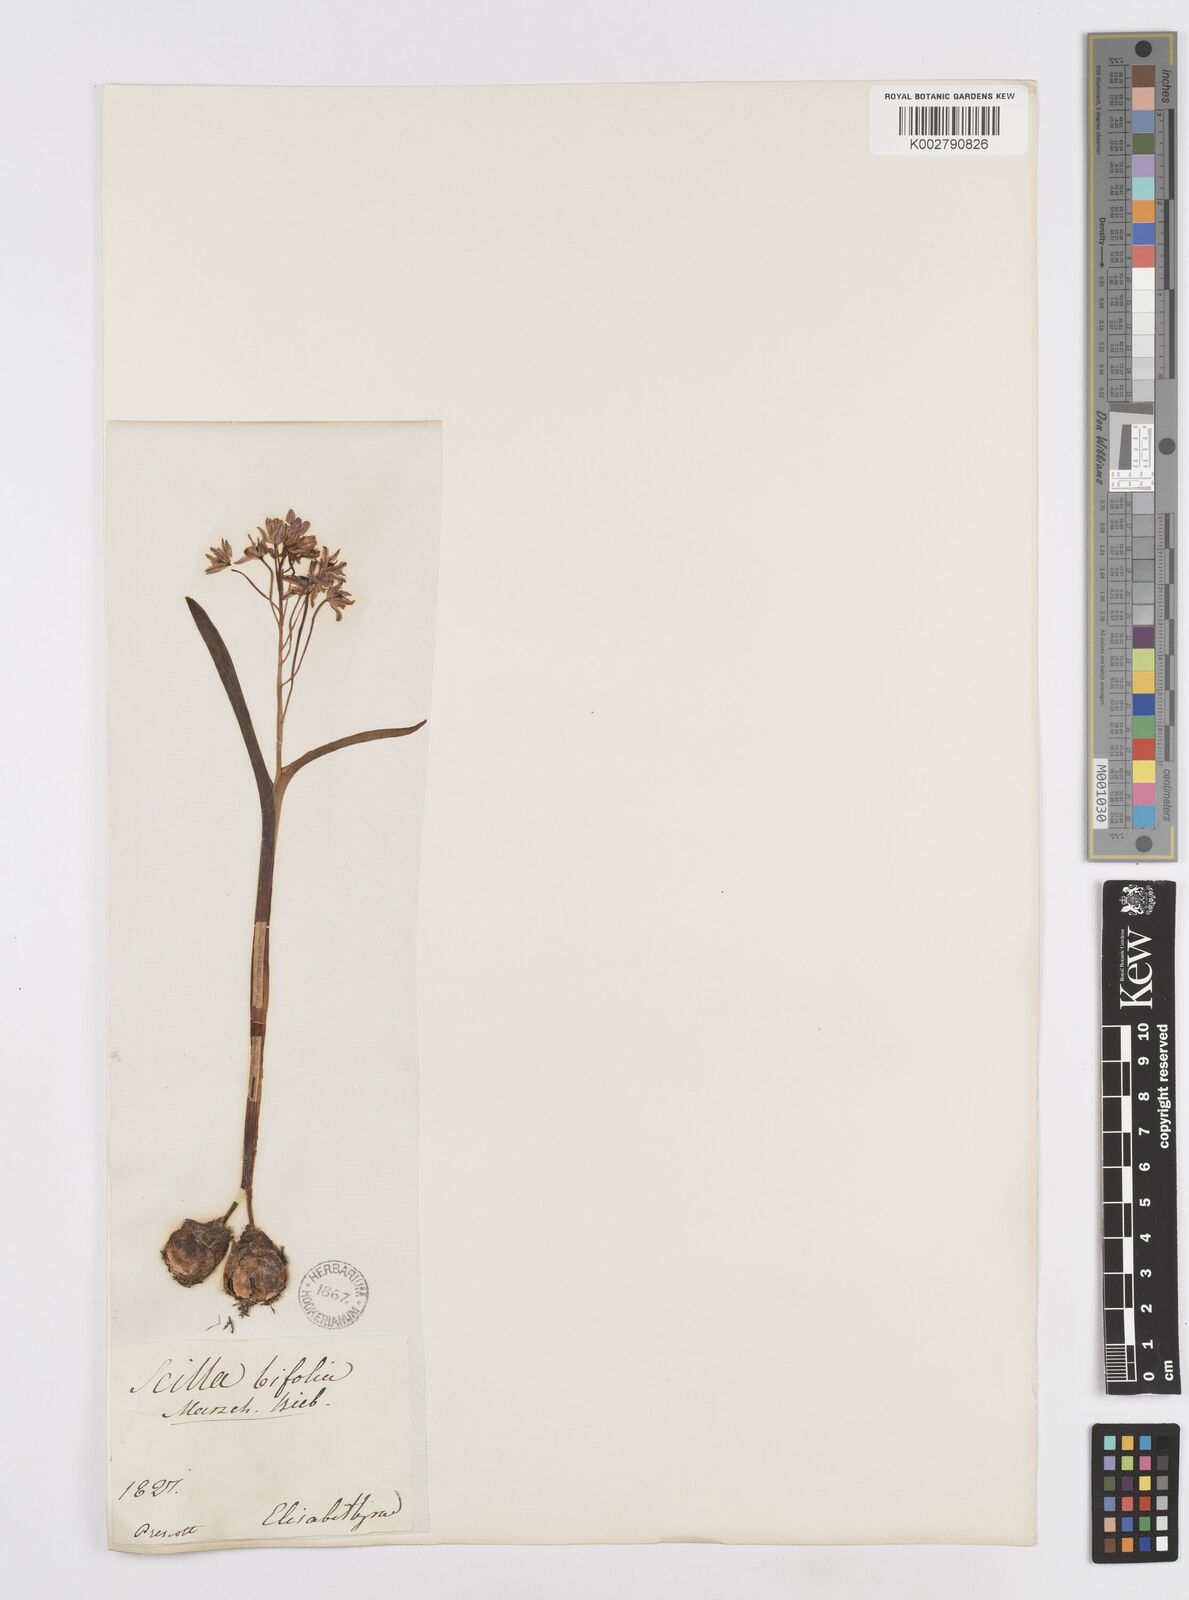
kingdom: Plantae
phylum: Tracheophyta
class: Liliopsida
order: Asparagales
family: Asparagaceae
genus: Scilla
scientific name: Scilla bifolia
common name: Alpine squill
